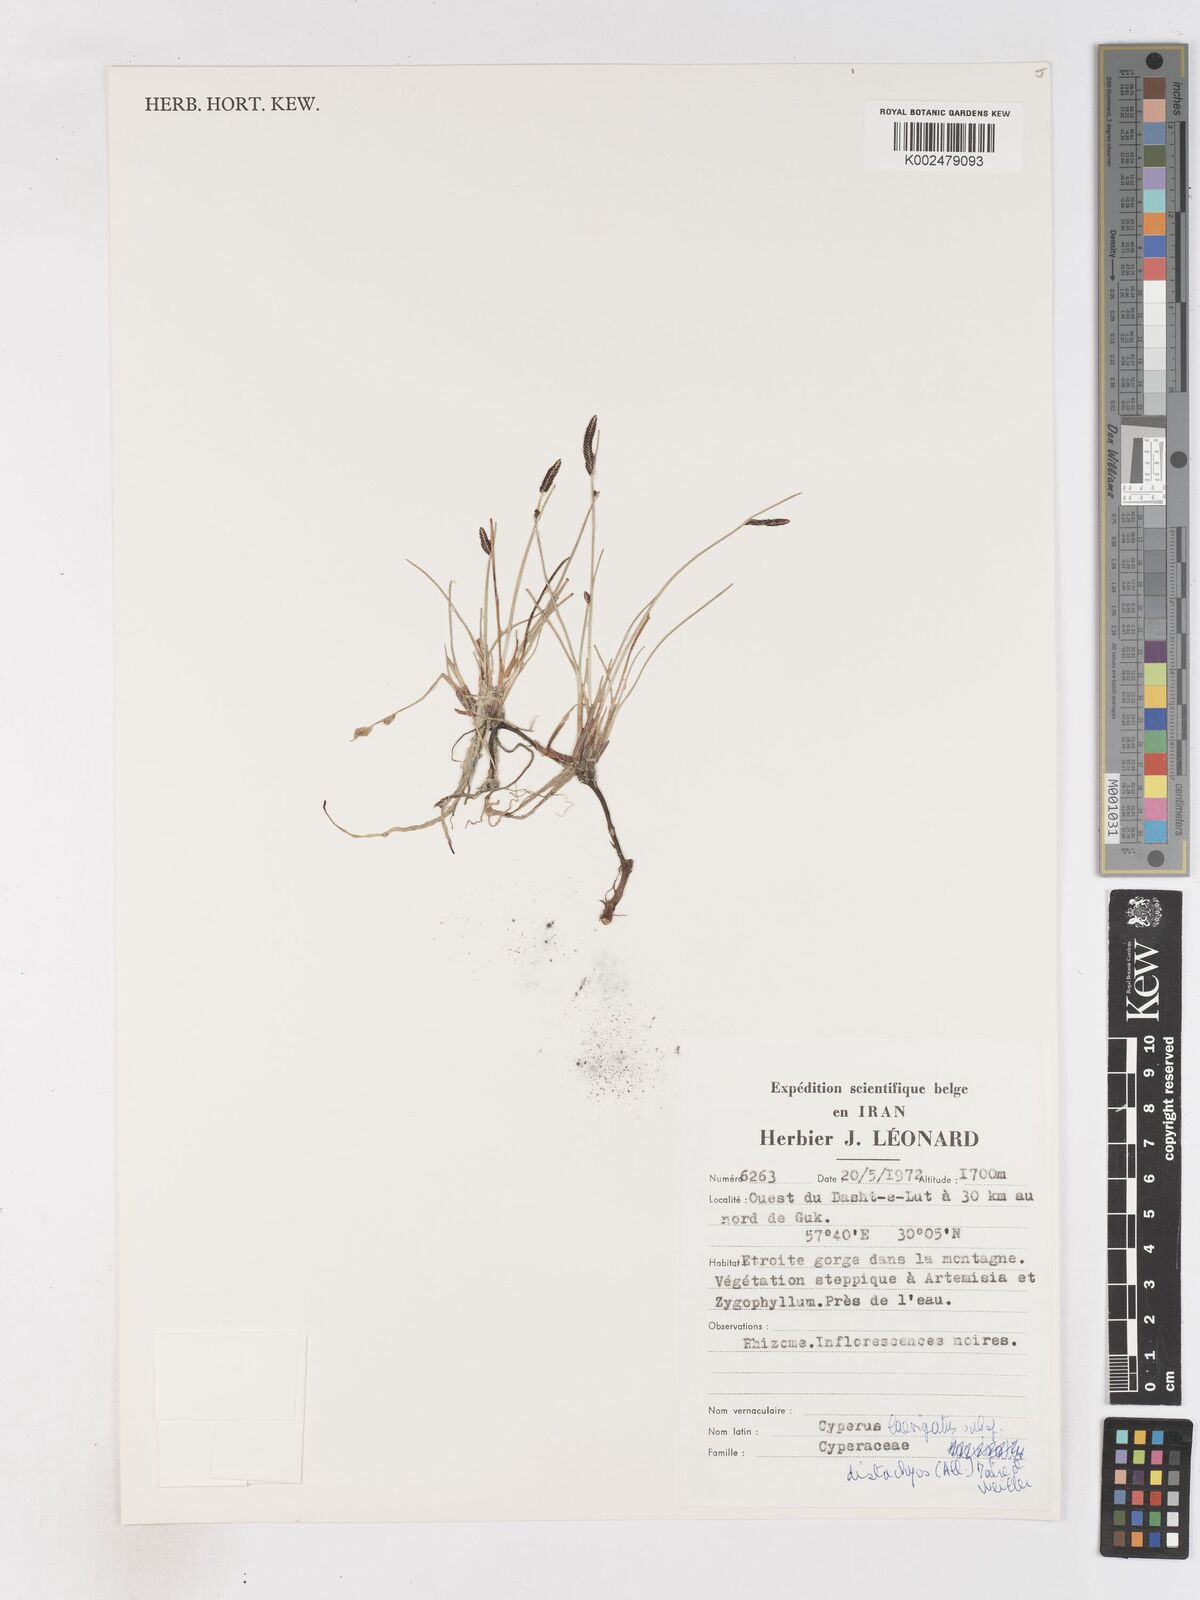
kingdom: Plantae
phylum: Tracheophyta
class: Liliopsida
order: Poales
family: Cyperaceae
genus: Cyperus
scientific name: Cyperus laevigatus
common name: Smooth flat sedge
